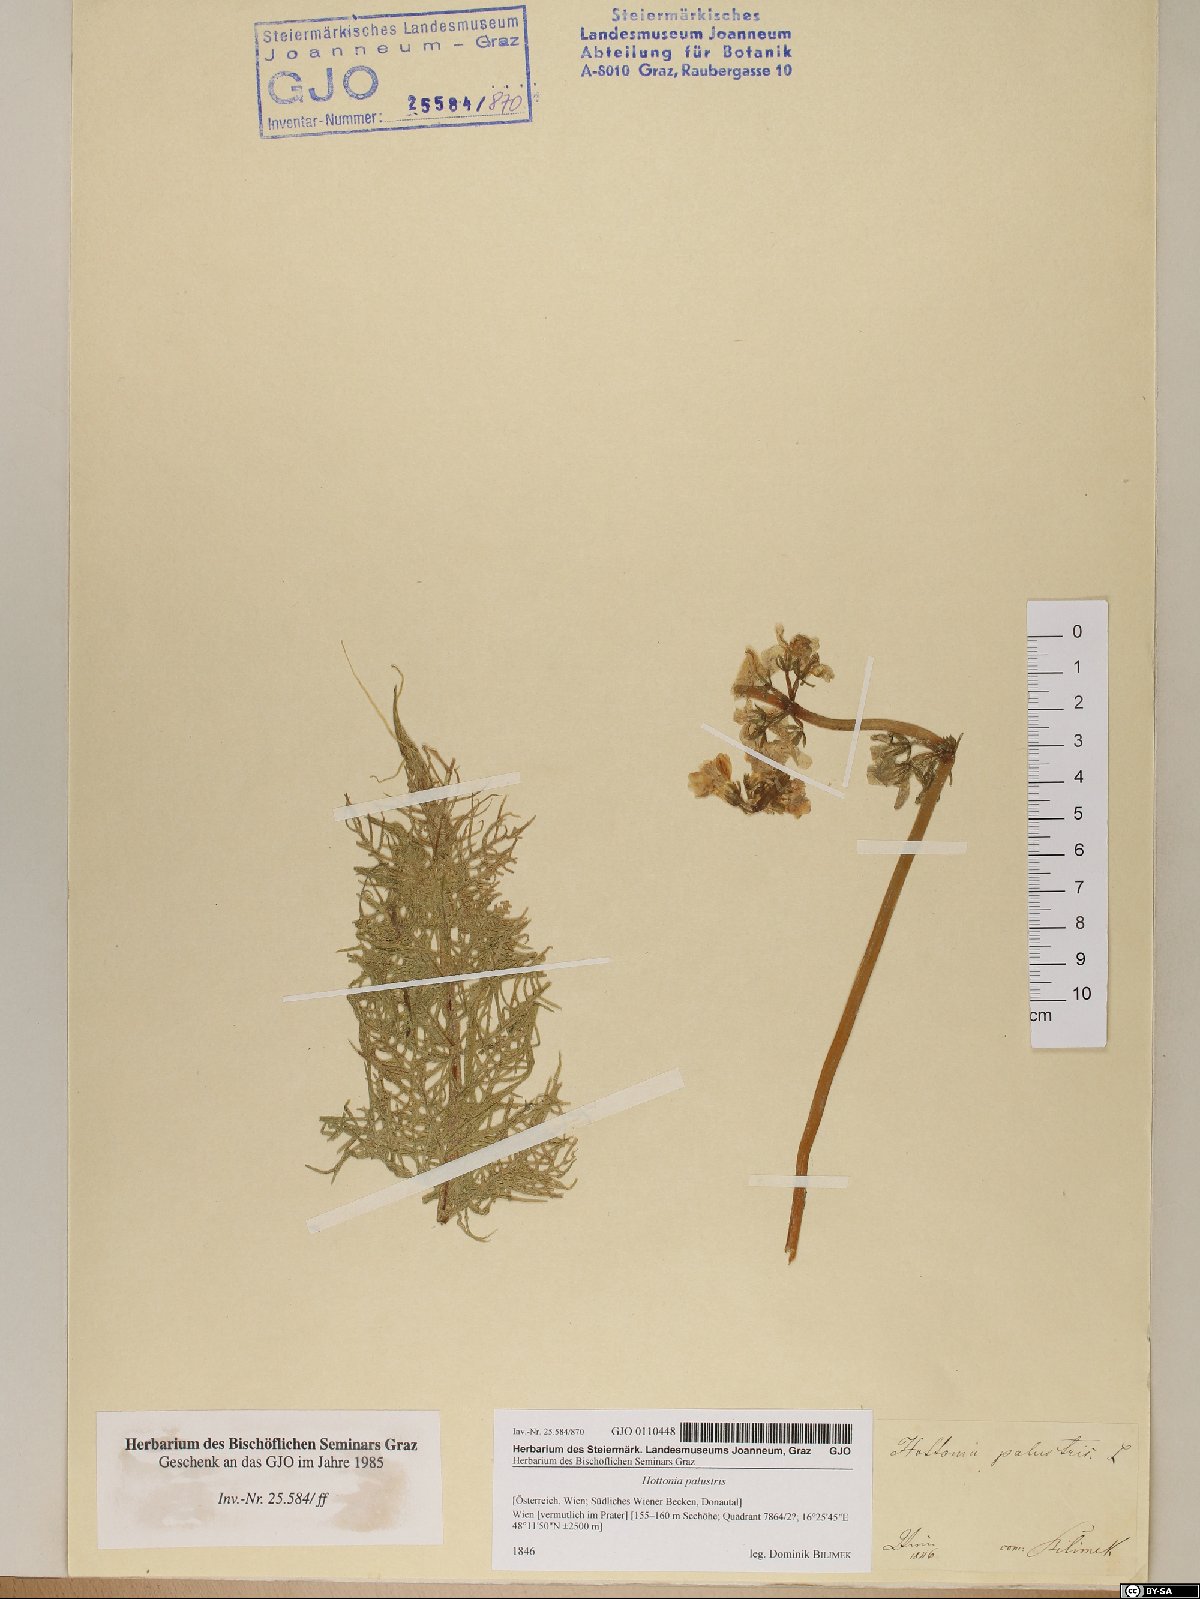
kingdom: Plantae
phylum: Tracheophyta
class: Magnoliopsida
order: Ericales
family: Primulaceae
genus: Hottonia
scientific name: Hottonia palustris
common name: Water-violet
